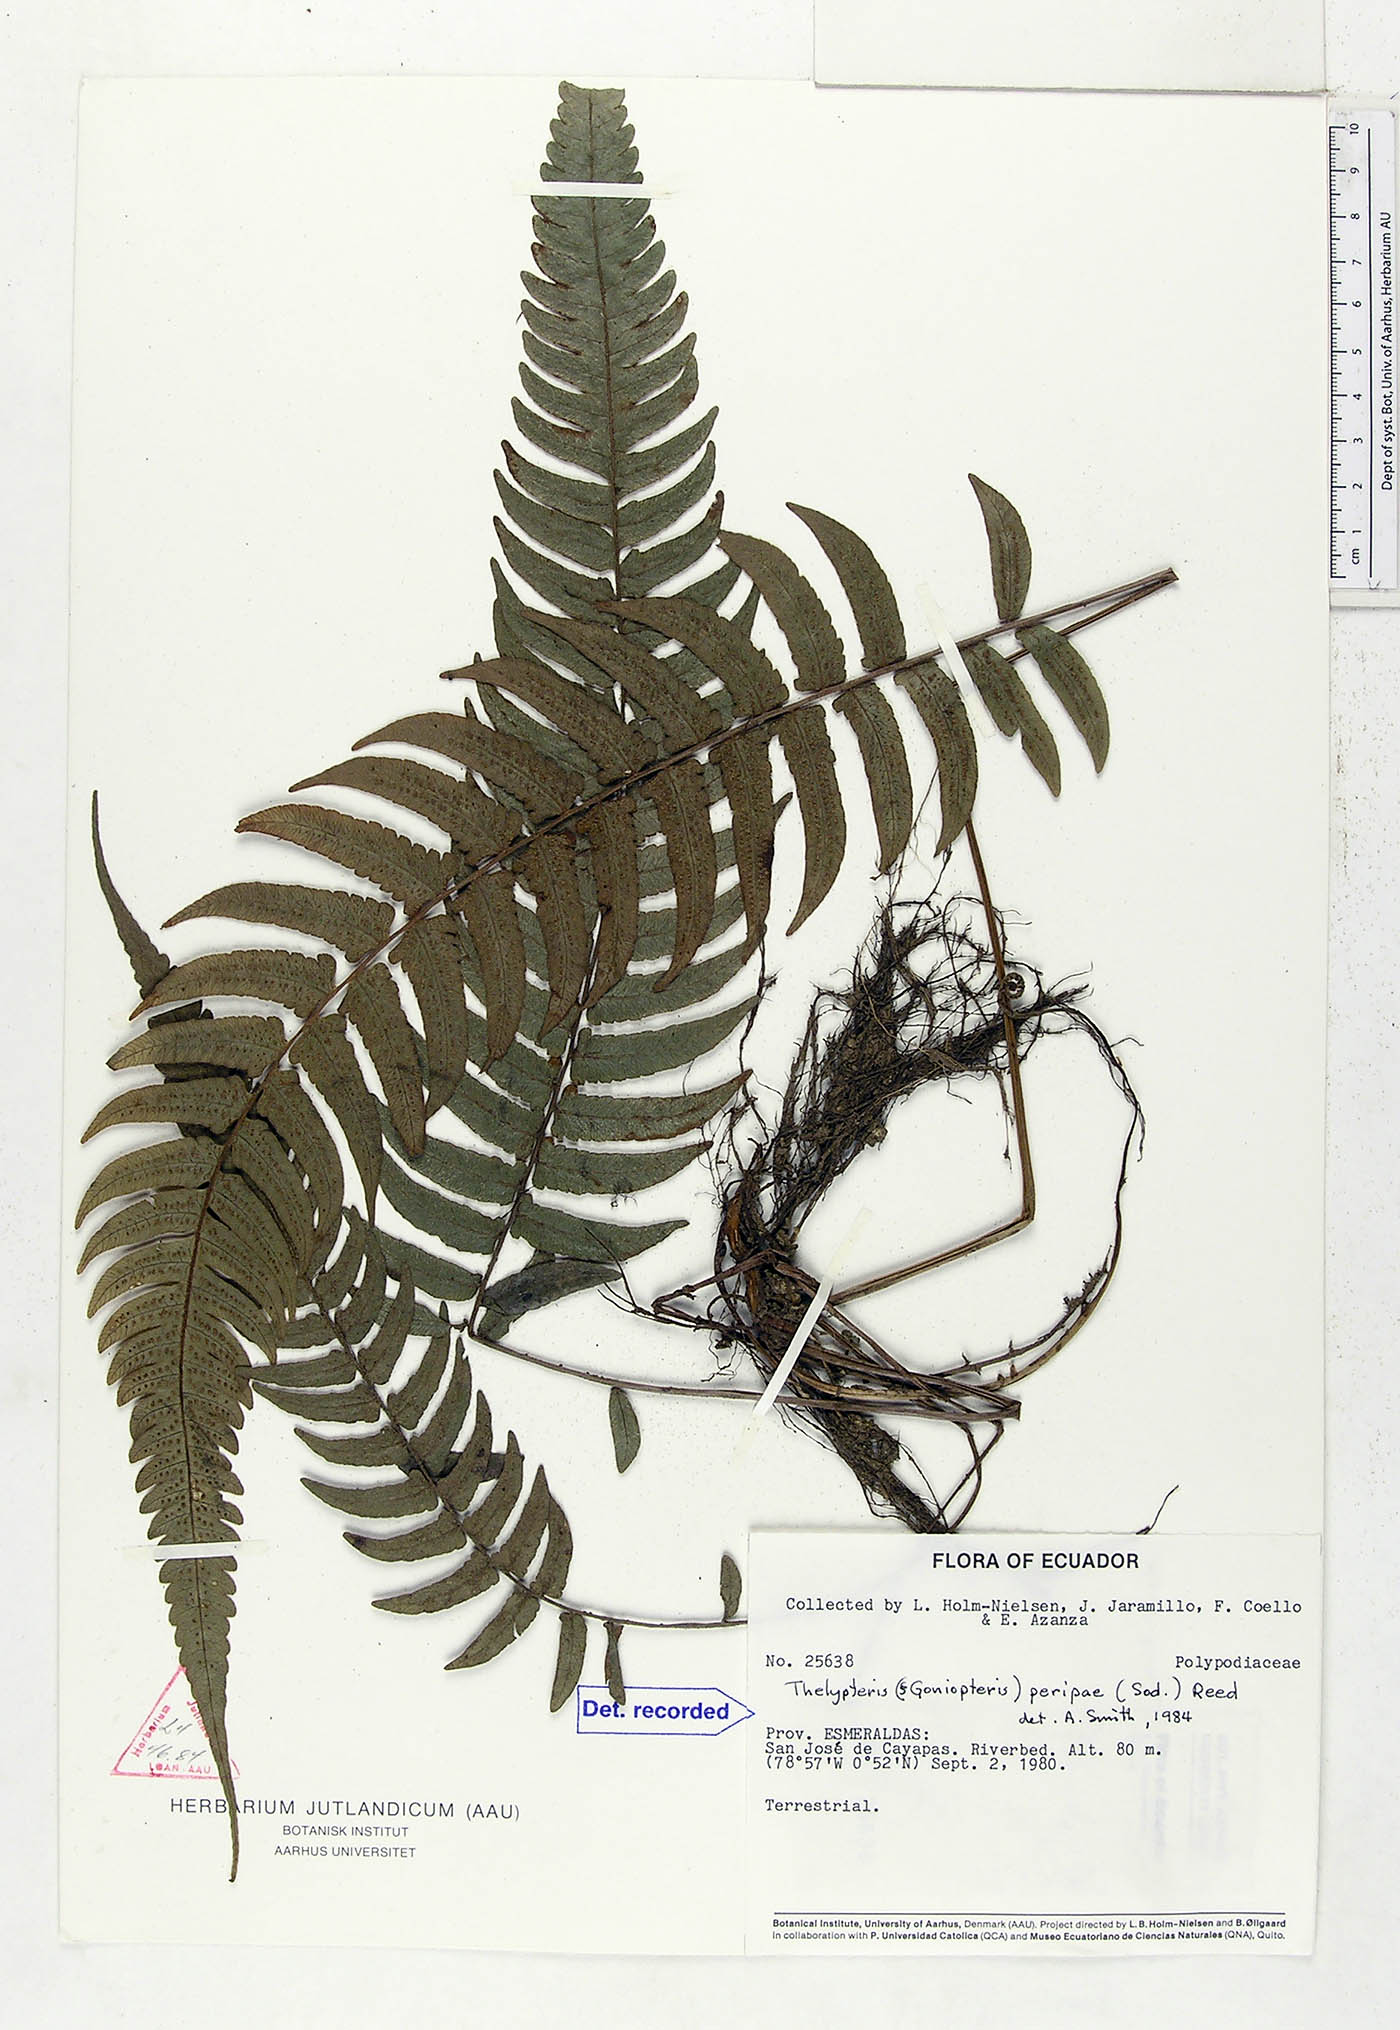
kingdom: Plantae
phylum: Tracheophyta
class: Polypodiopsida
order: Polypodiales
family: Thelypteridaceae
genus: Goniopteris
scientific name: Goniopteris peripae
